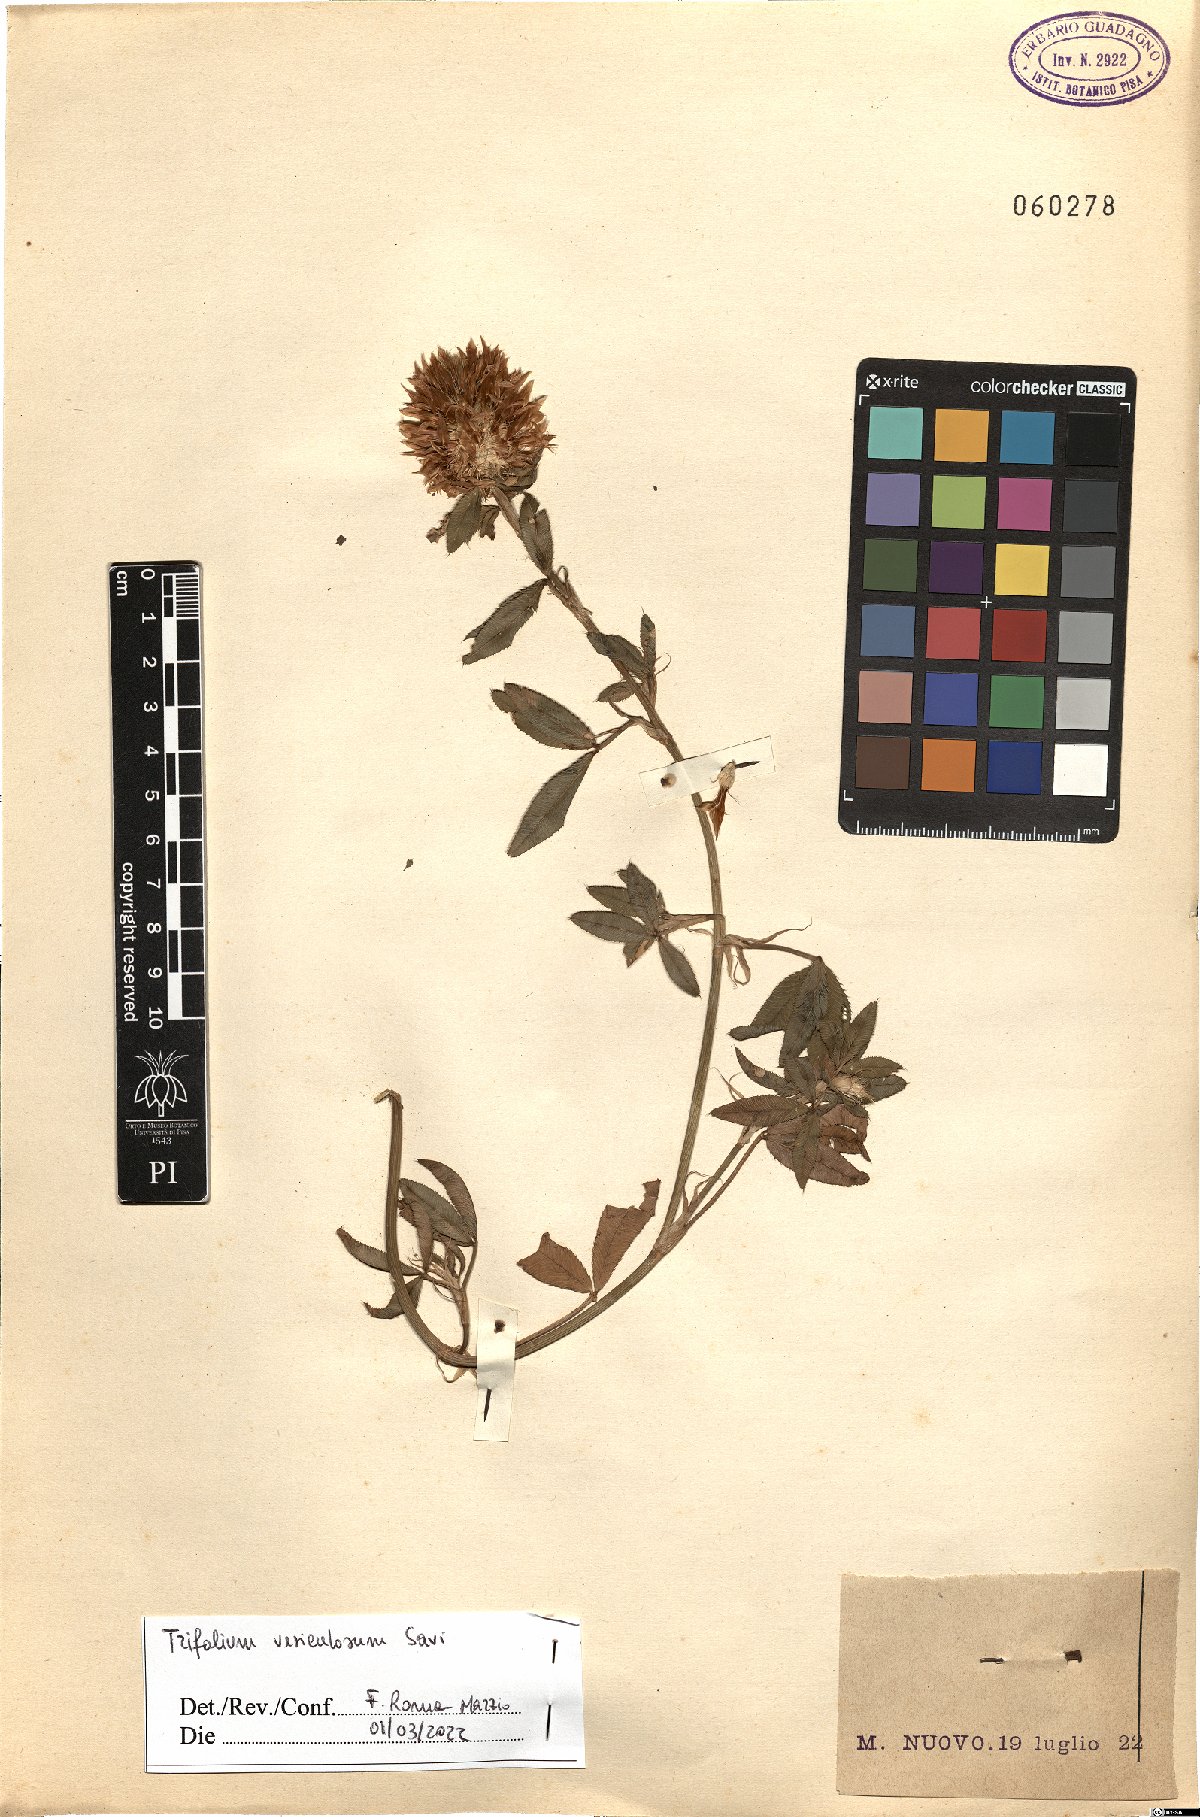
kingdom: Plantae
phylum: Tracheophyta
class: Magnoliopsida
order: Fabales
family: Fabaceae
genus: Trifolium
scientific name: Trifolium vesiculosum
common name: Arrowleaf clover
